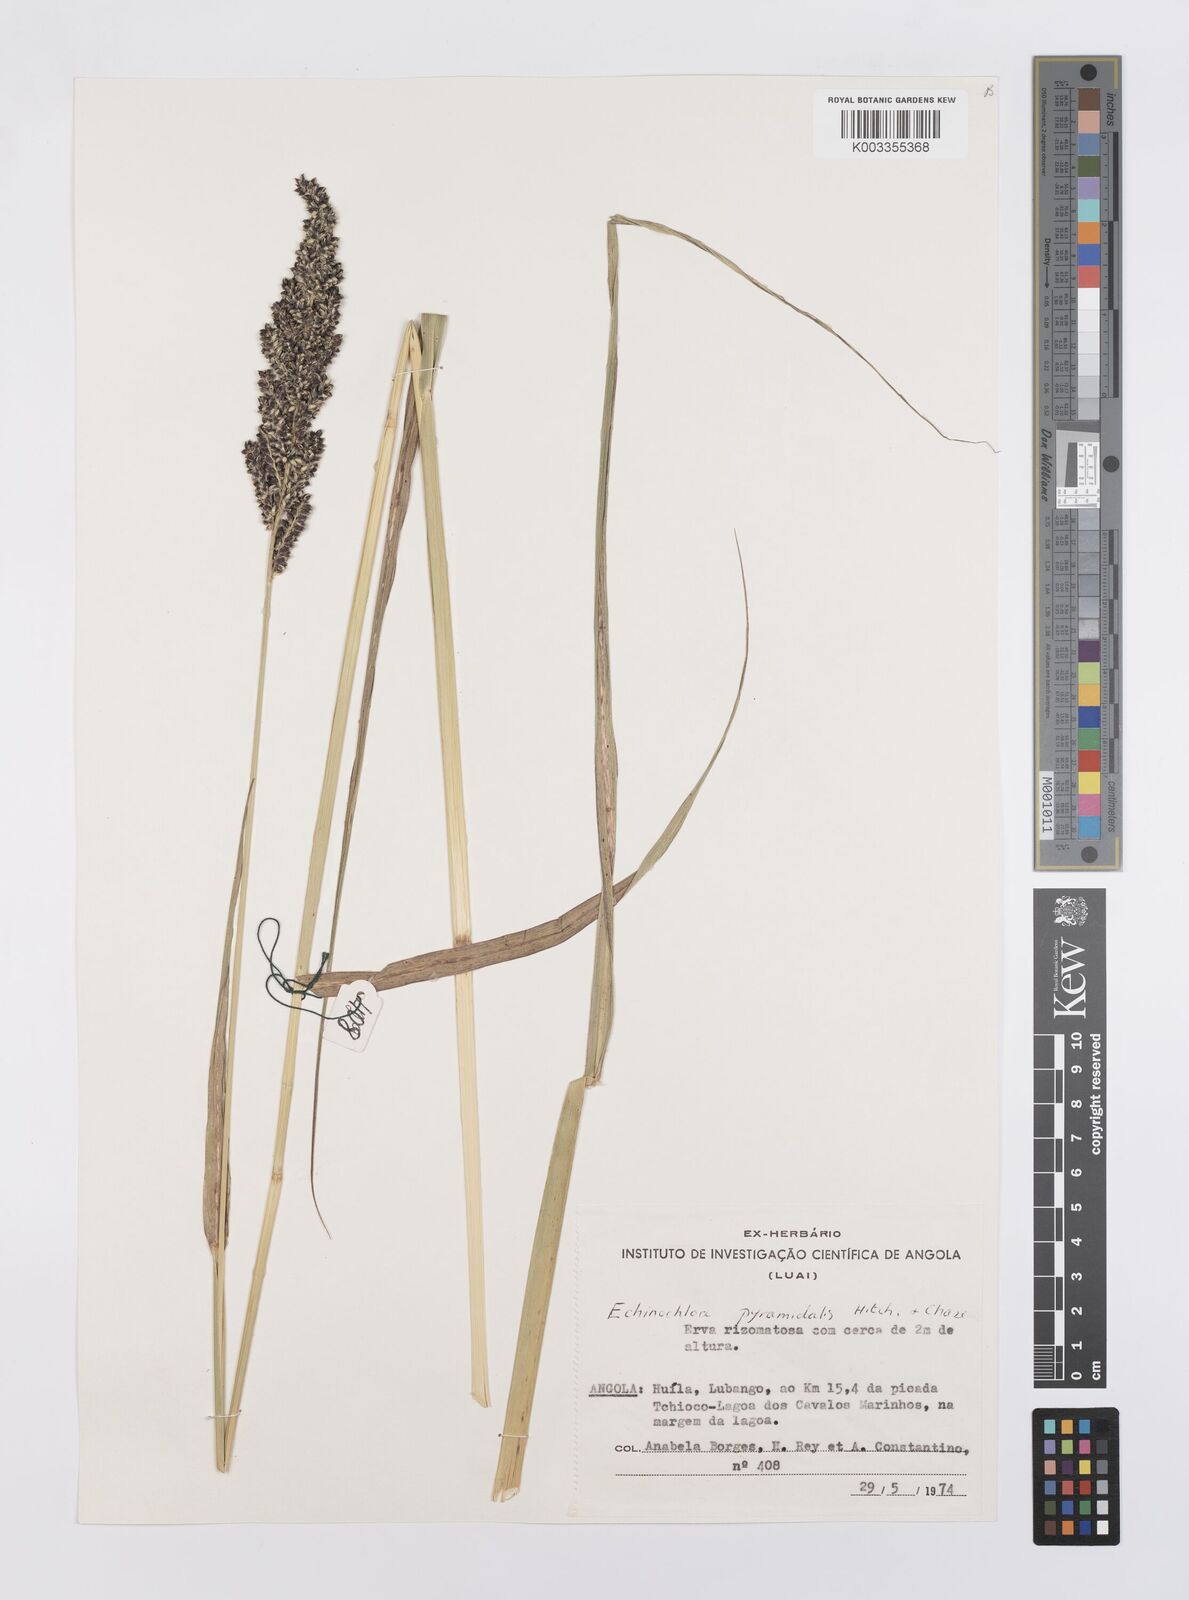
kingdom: Plantae
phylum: Tracheophyta
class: Liliopsida
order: Poales
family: Poaceae
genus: Echinochloa
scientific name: Echinochloa pyramidalis
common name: Antelope grass
